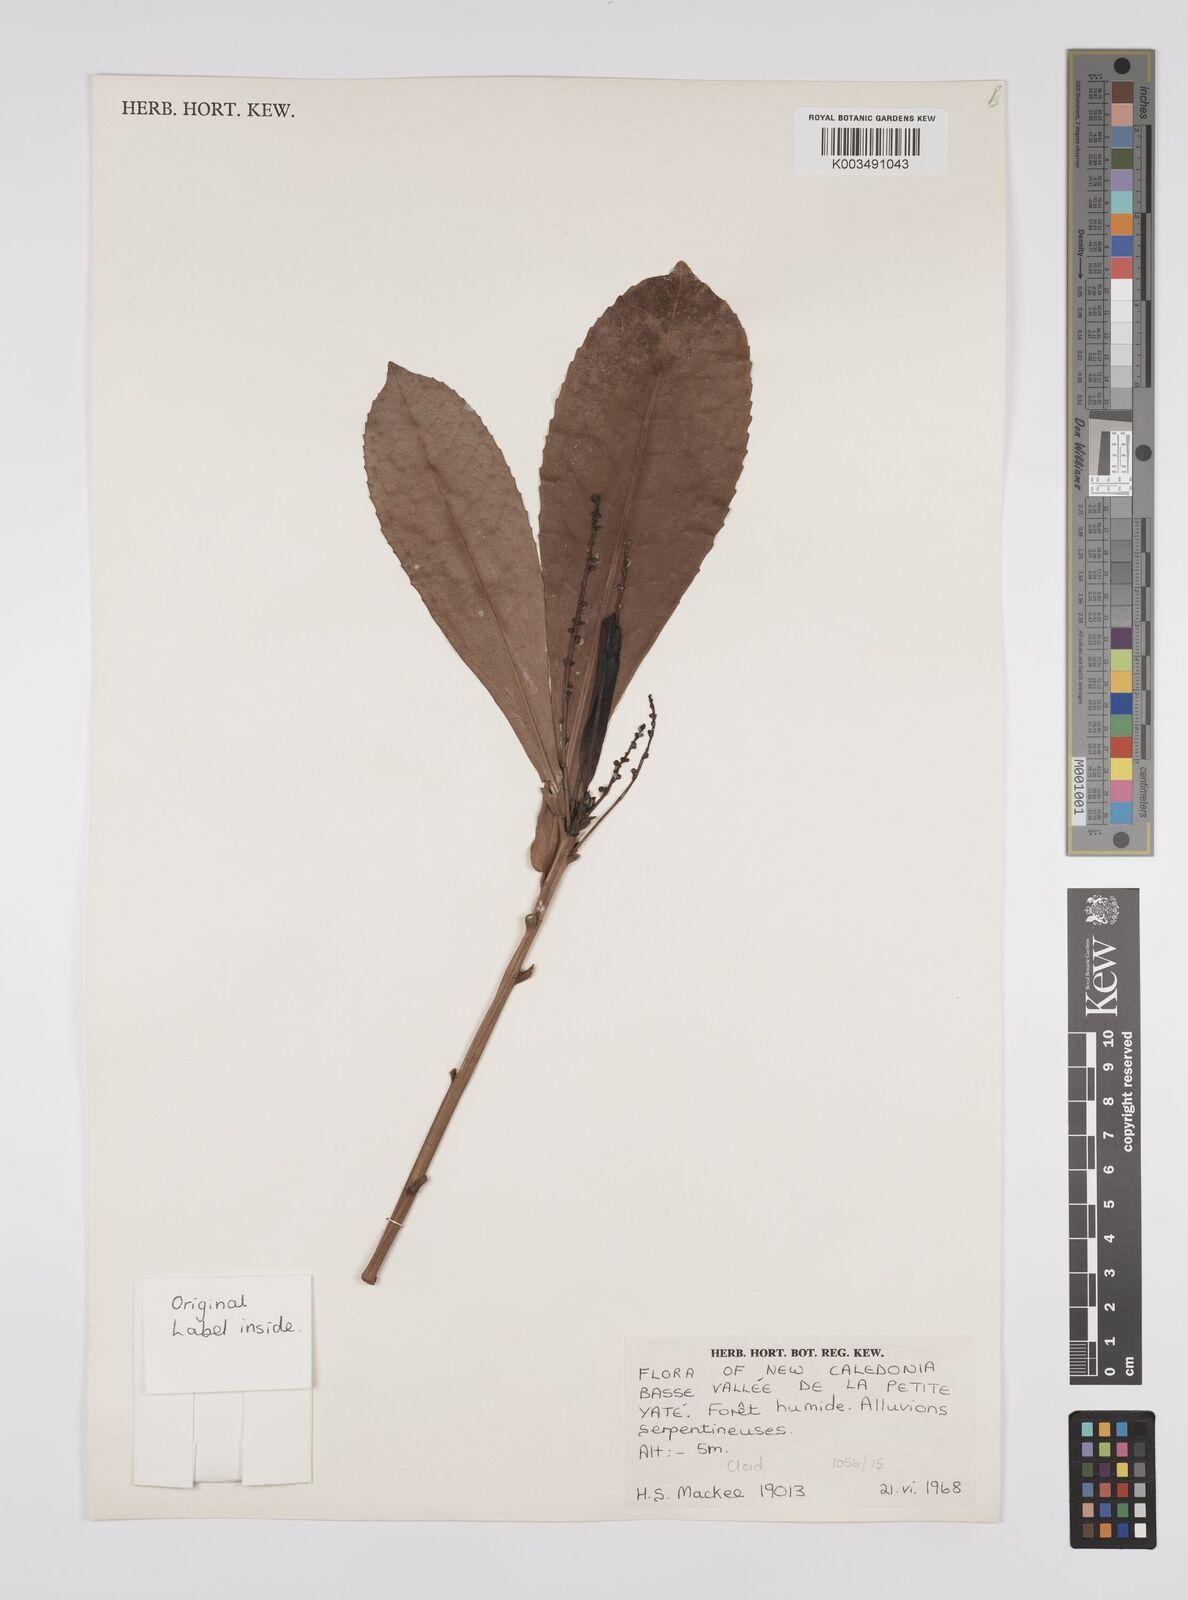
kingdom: Plantae
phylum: Tracheophyta
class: Magnoliopsida
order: Malpighiales
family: Euphorbiaceae
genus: Cleidion
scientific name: Cleidion vieillardii
